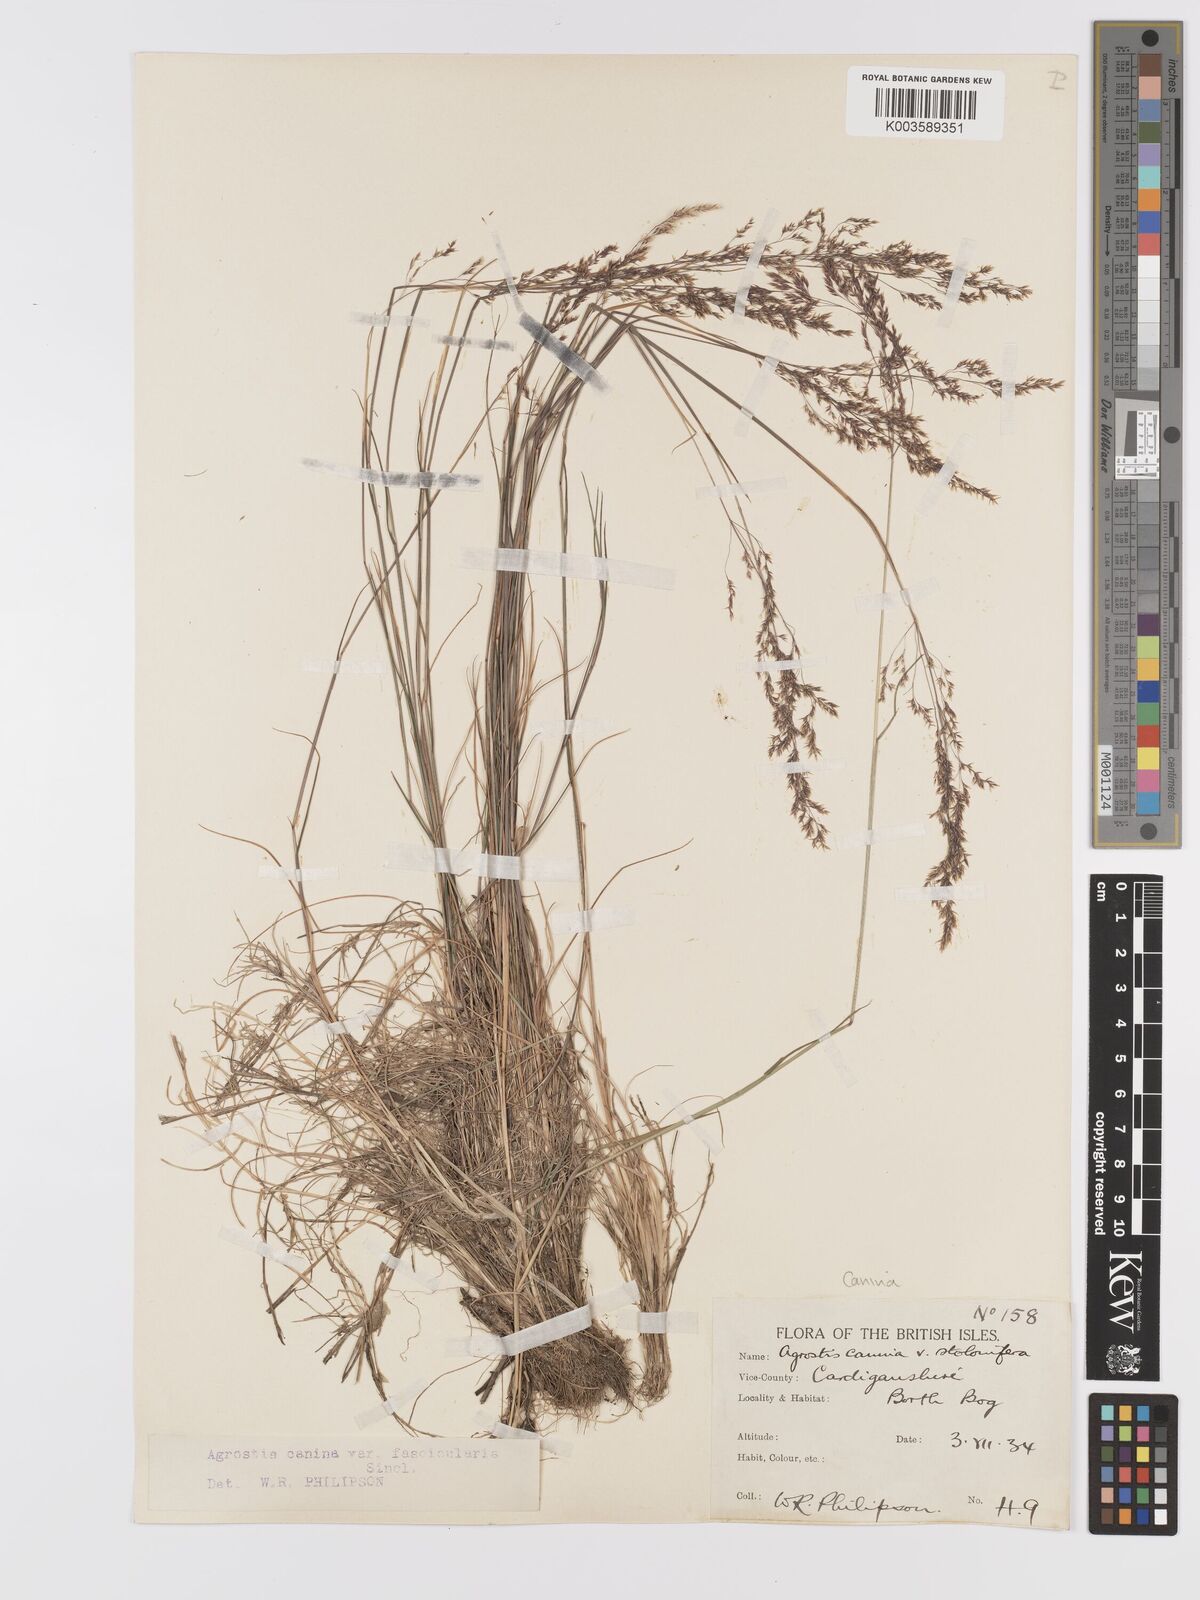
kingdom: Plantae
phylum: Tracheophyta
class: Liliopsida
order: Poales
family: Poaceae
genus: Agrostis
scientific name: Agrostis canina
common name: Velvet bent
